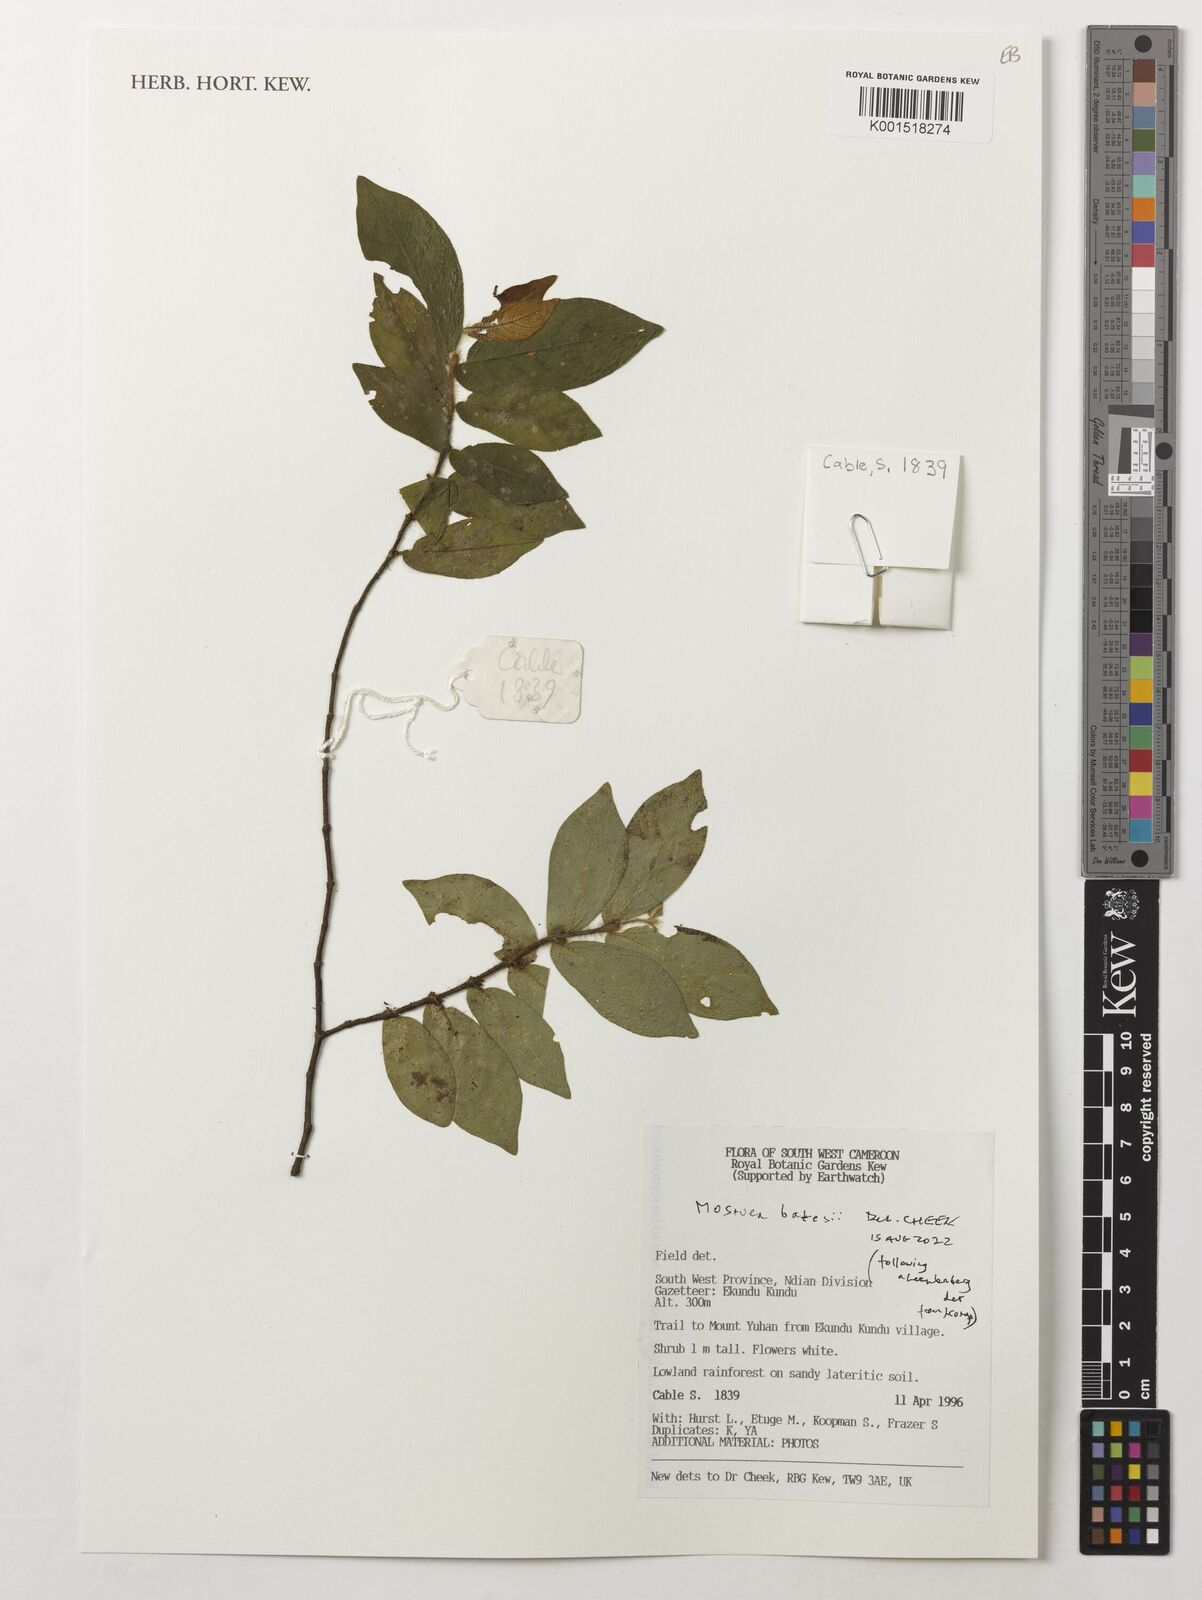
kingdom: Plantae
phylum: Tracheophyta
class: Magnoliopsida
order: Gentianales
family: Gelsemiaceae
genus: Mostuea
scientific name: Mostuea batesii
